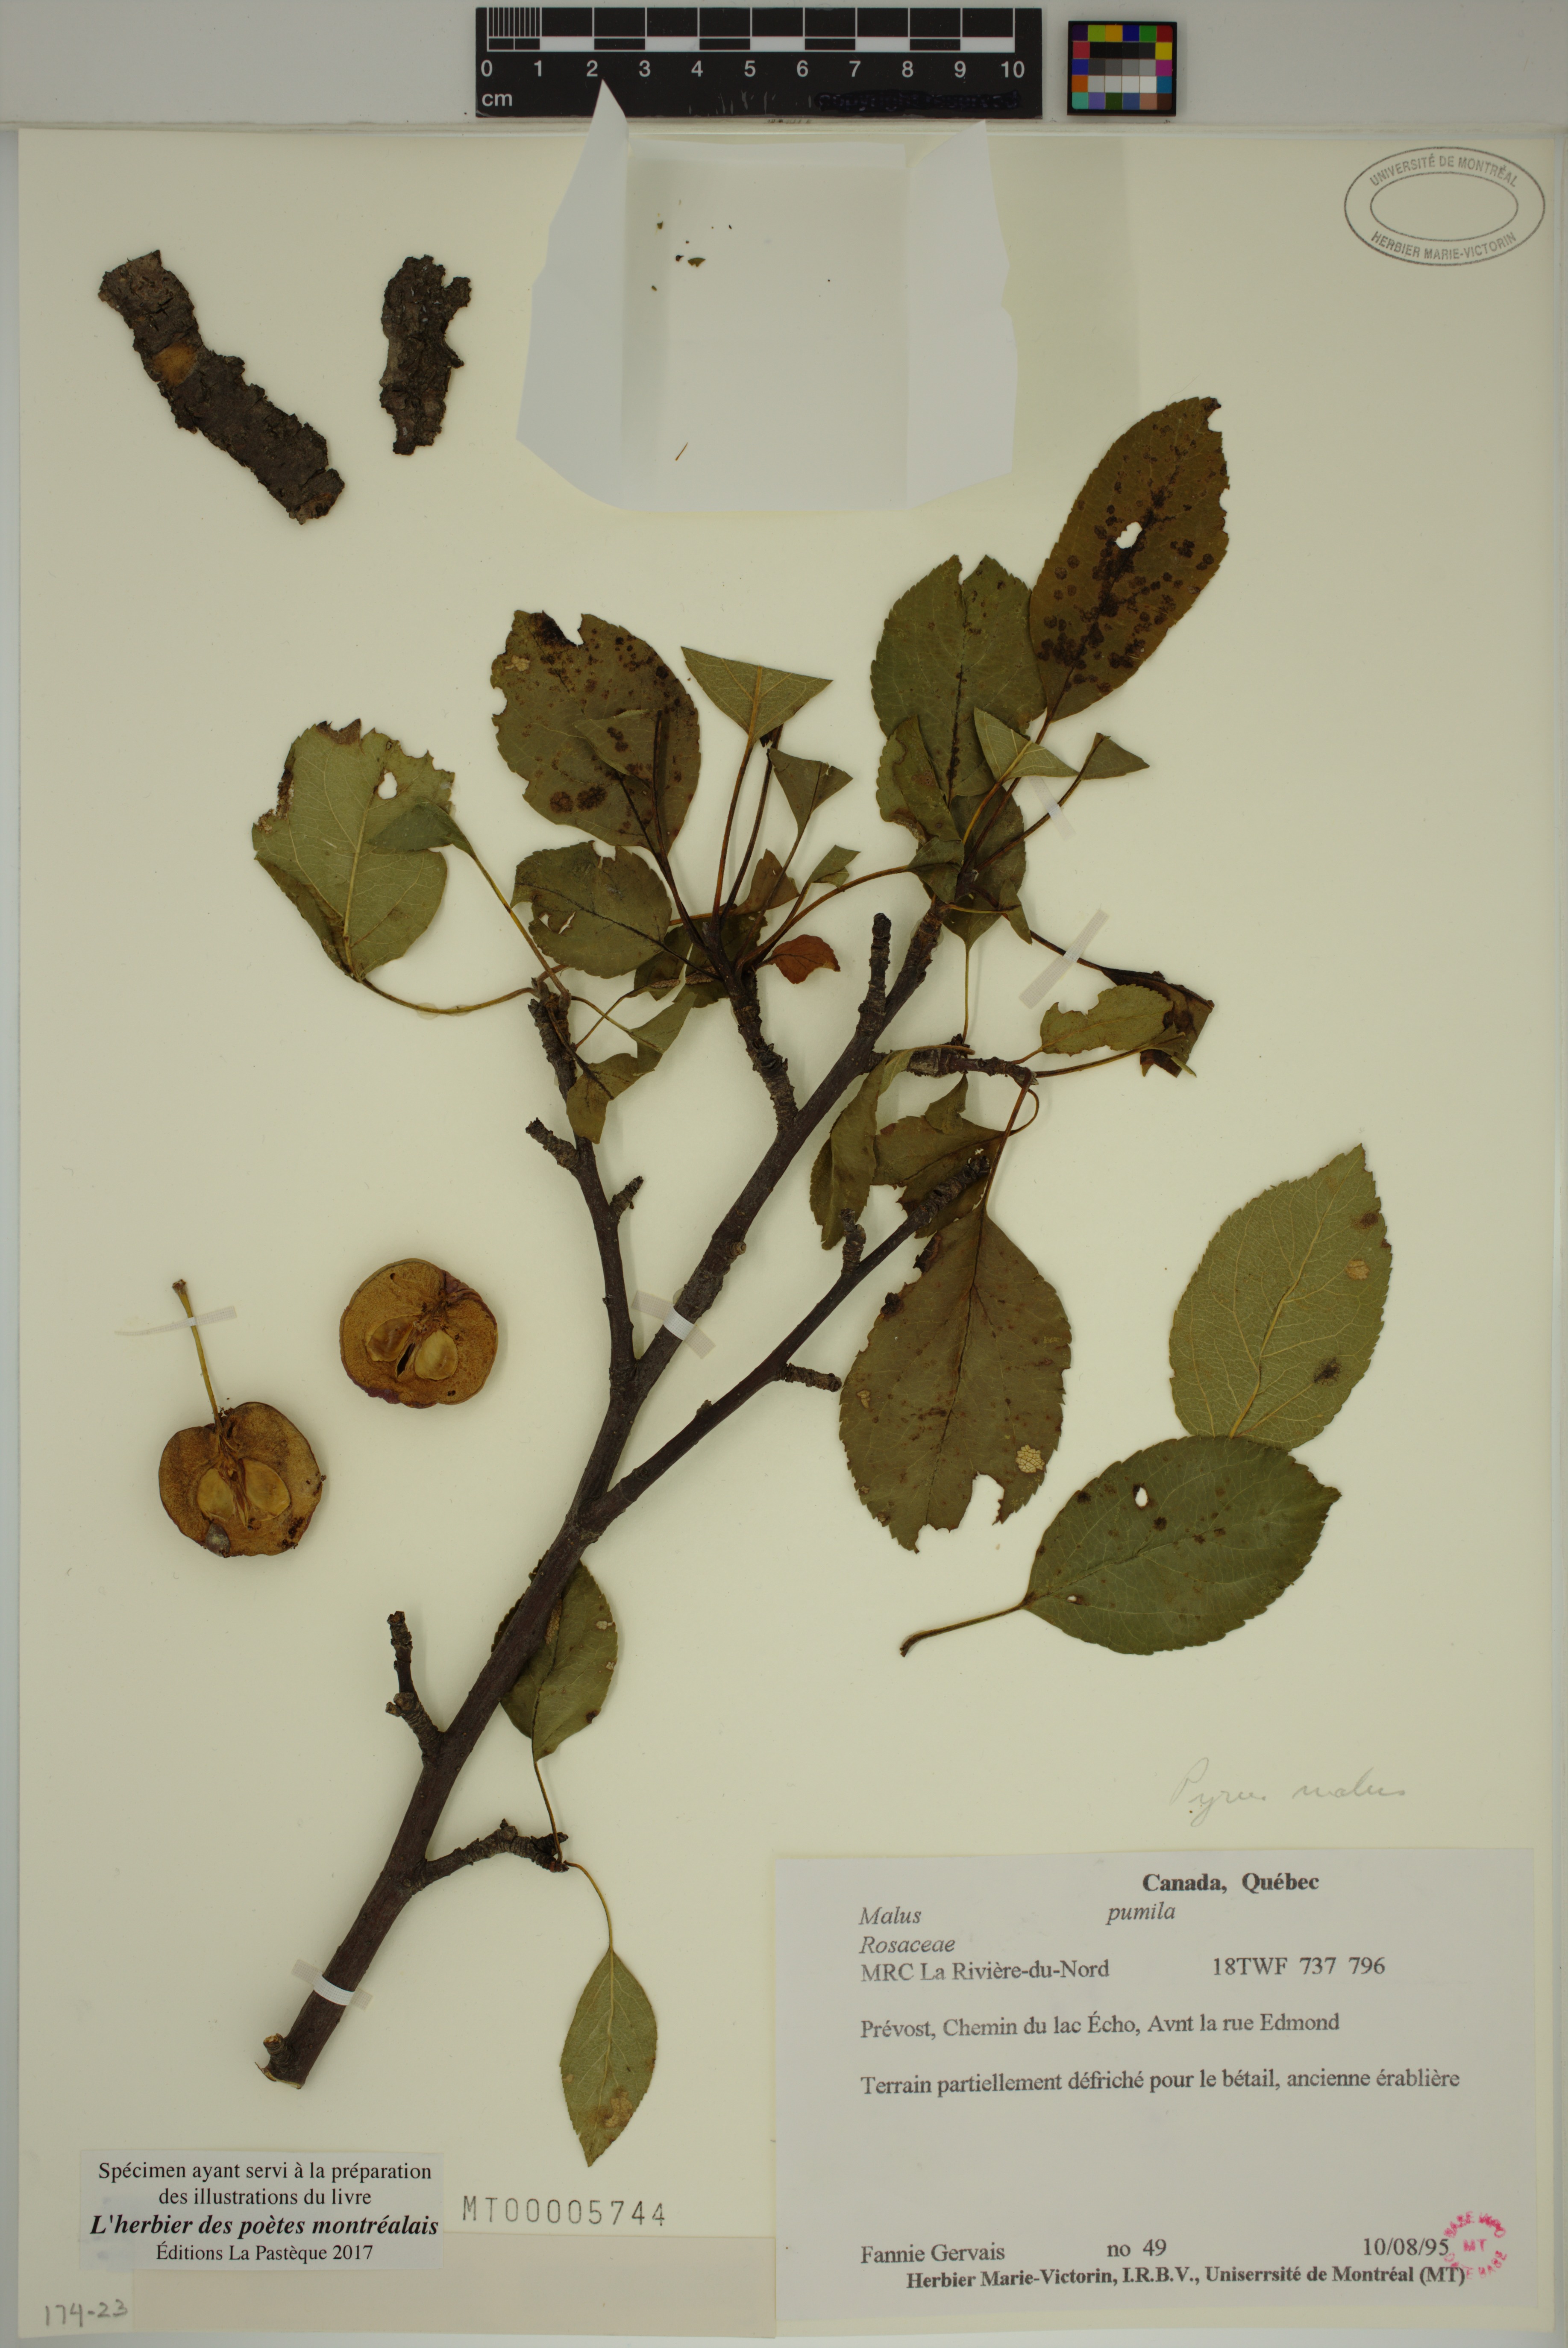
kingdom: Plantae
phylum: Tracheophyta
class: Magnoliopsida
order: Rosales
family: Rosaceae
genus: Malus
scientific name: Malus domestica
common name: Apple
